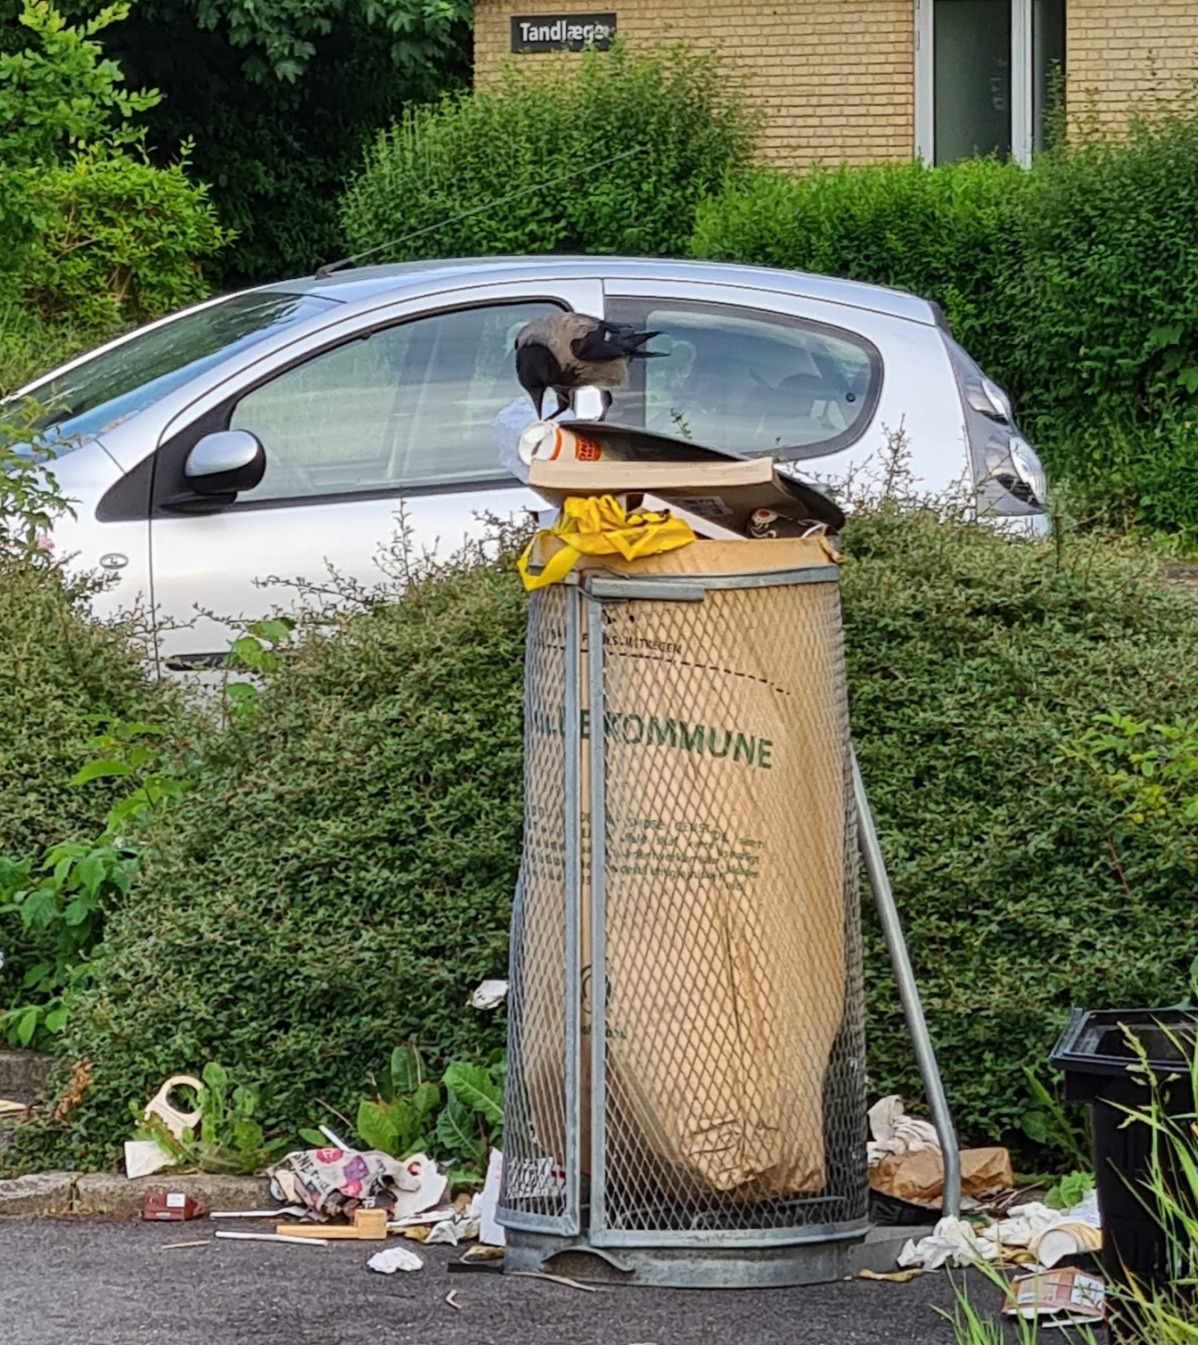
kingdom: Animalia
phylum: Chordata
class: Aves
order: Passeriformes
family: Corvidae
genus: Corvus
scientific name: Corvus cornix
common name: Gråkrage
